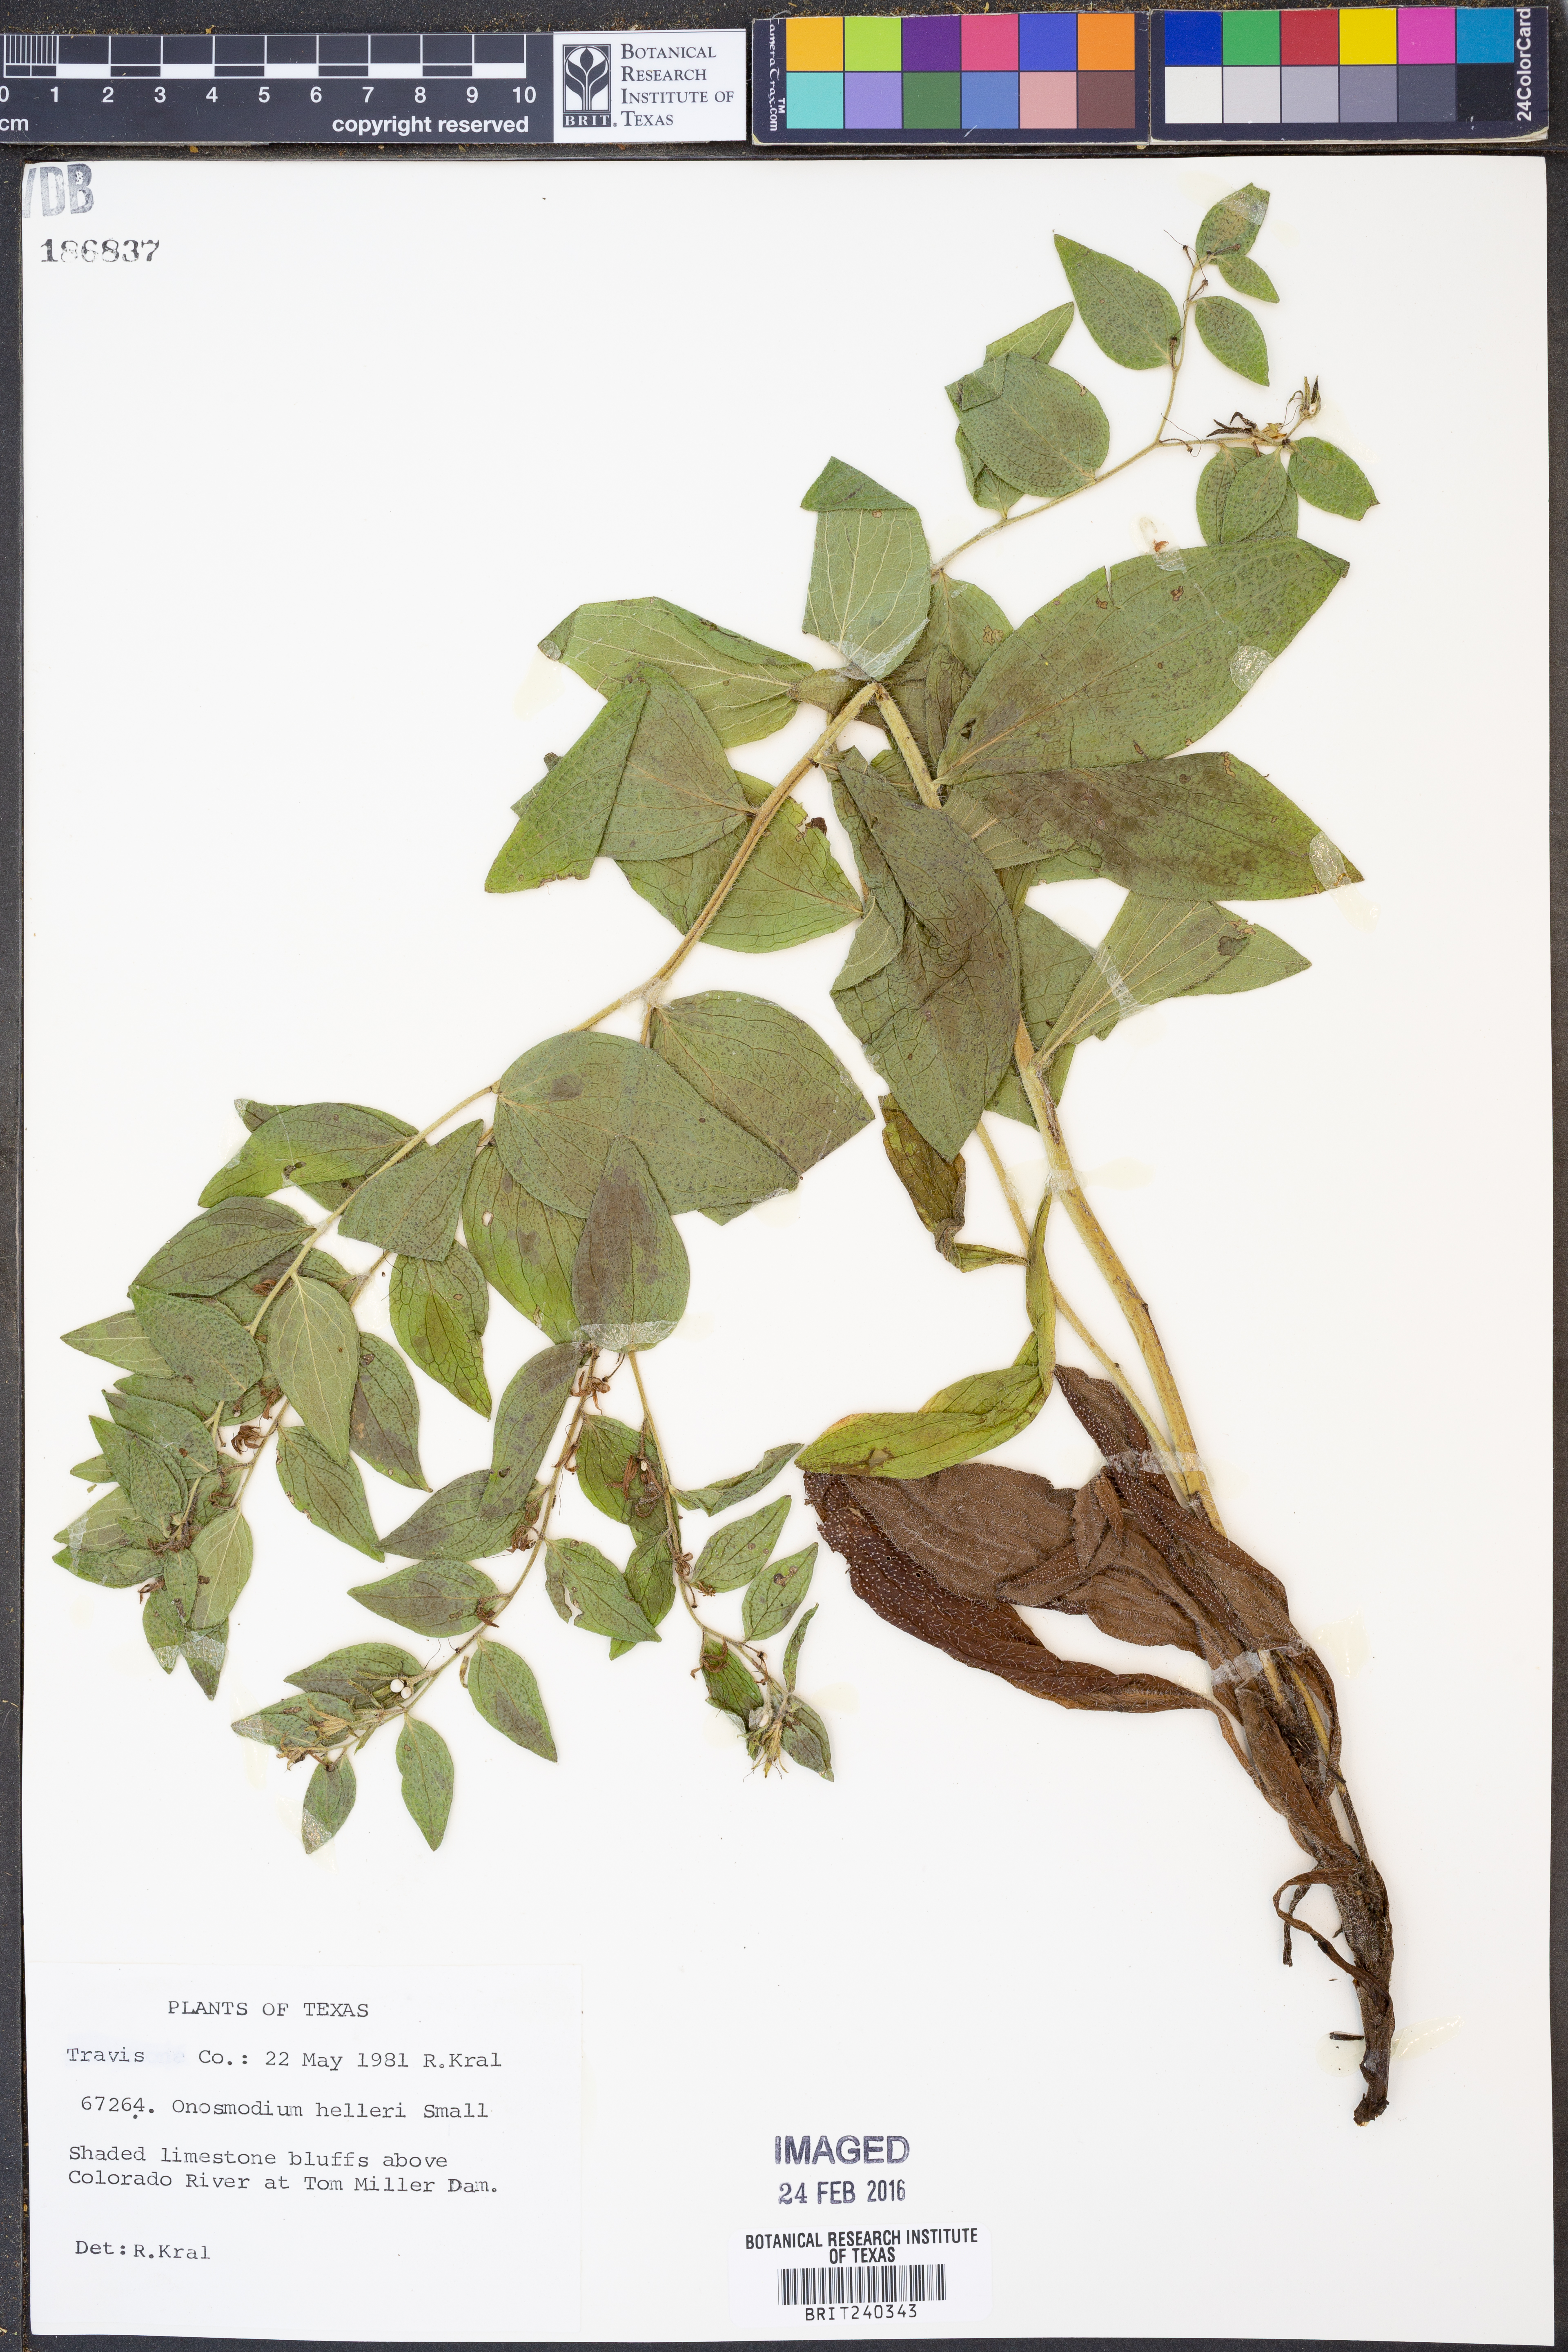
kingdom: Plantae
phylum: Tracheophyta
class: Magnoliopsida
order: Boraginales
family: Boraginaceae
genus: Lithospermum
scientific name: Lithospermum helleri
